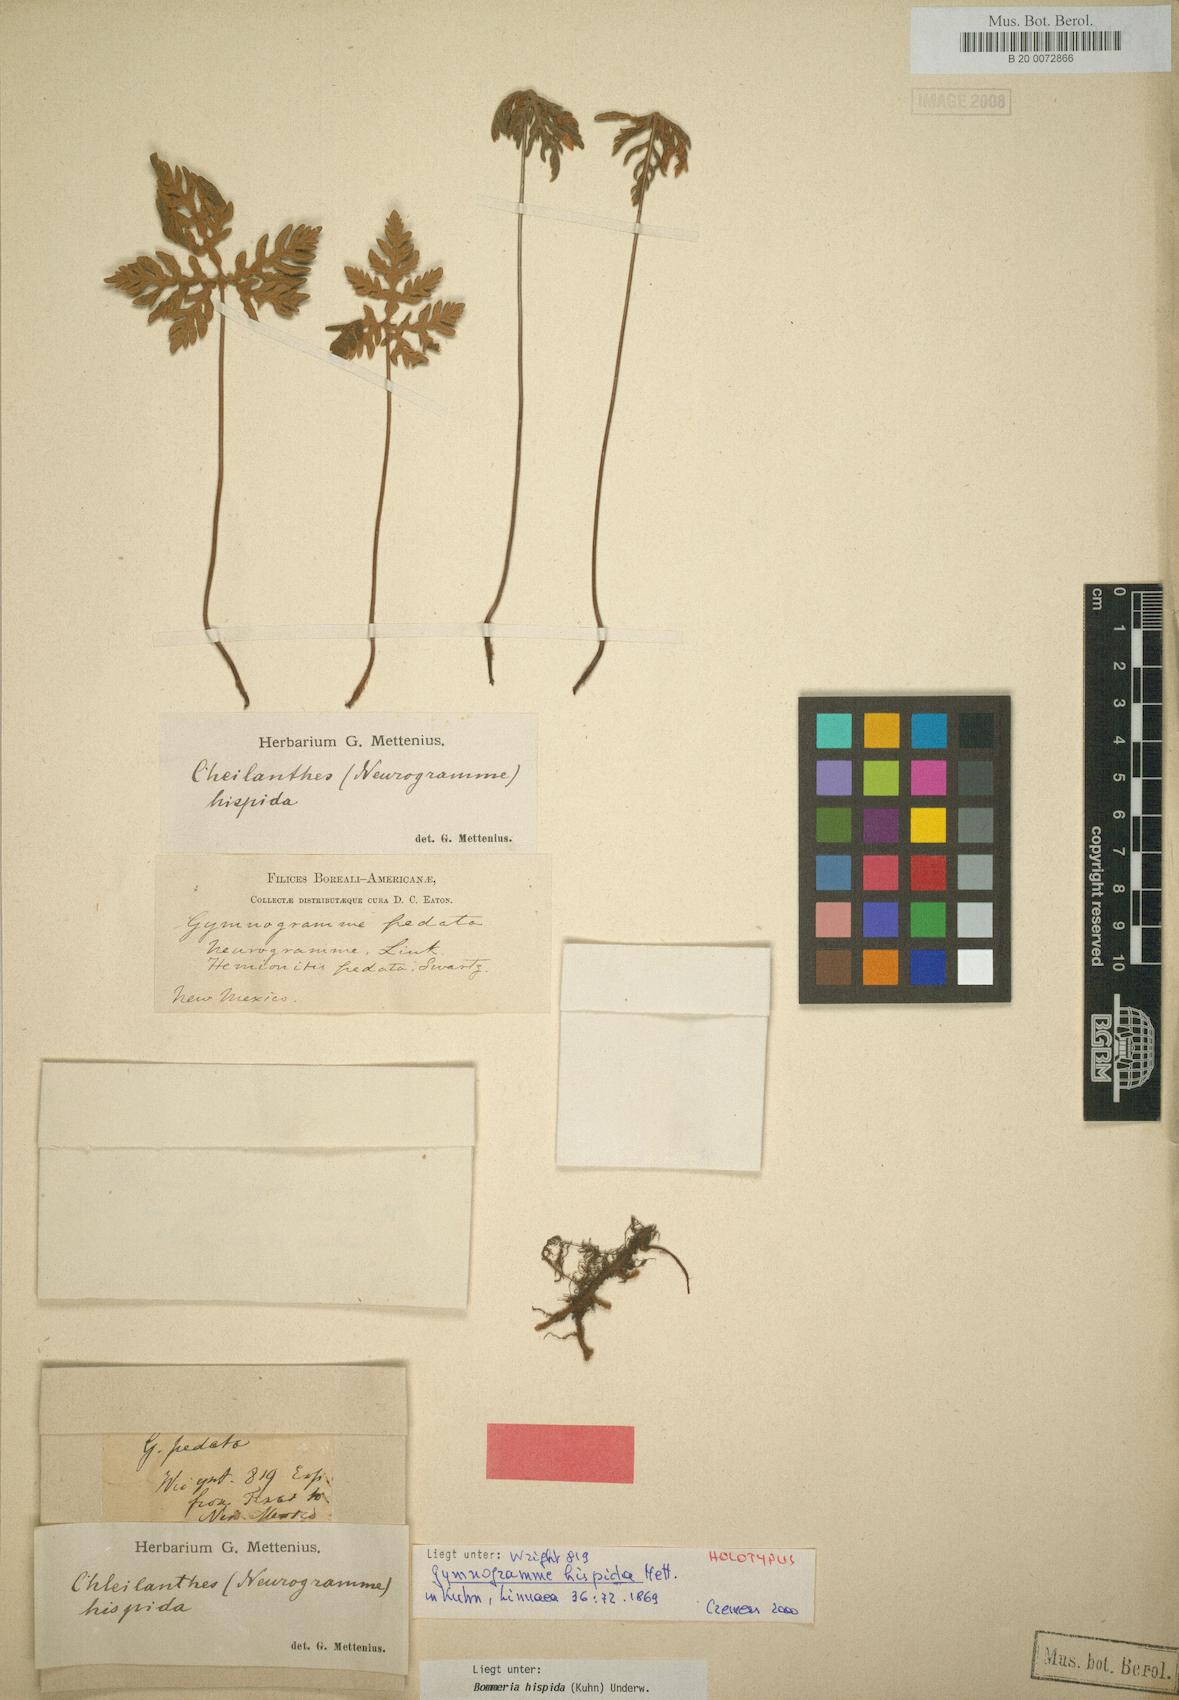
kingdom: Plantae
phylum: Tracheophyta
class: Polypodiopsida
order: Polypodiales
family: Pteridaceae
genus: Bommeria
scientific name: Bommeria hispida
